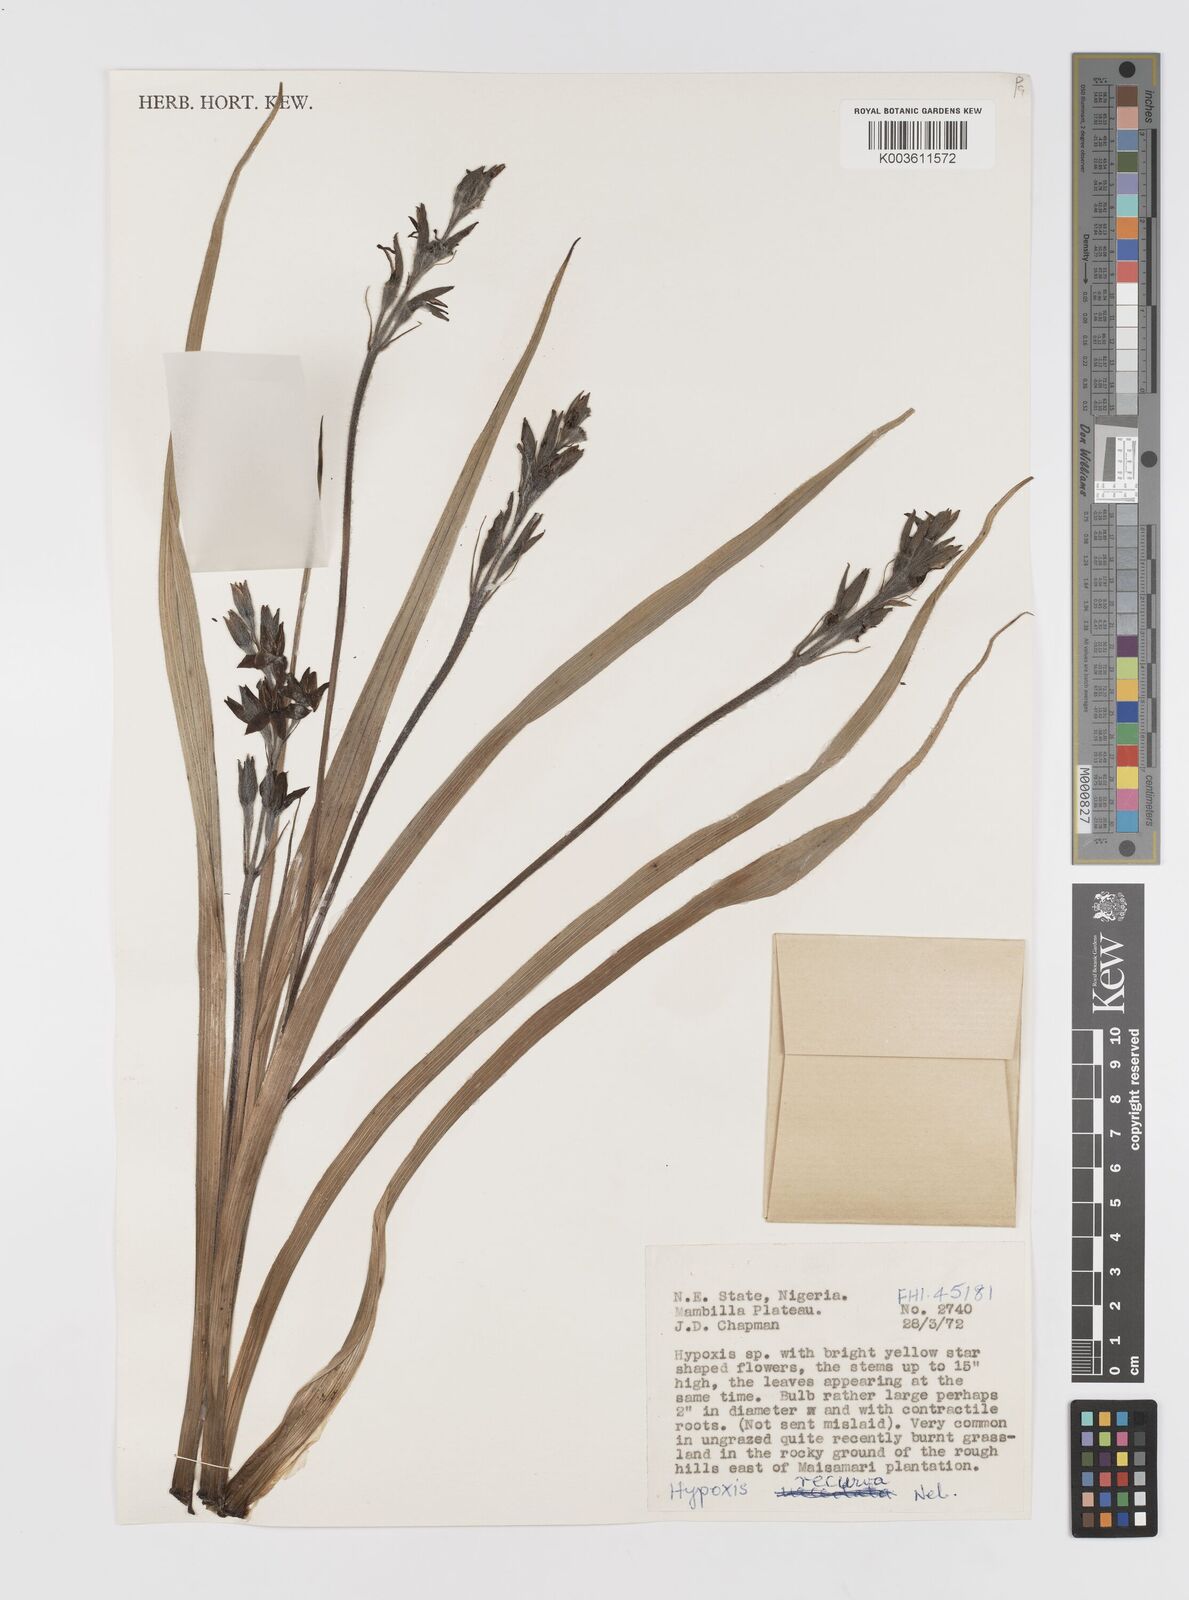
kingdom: Plantae
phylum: Tracheophyta
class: Liliopsida
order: Asparagales
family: Hypoxidaceae
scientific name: Hypoxidaceae
